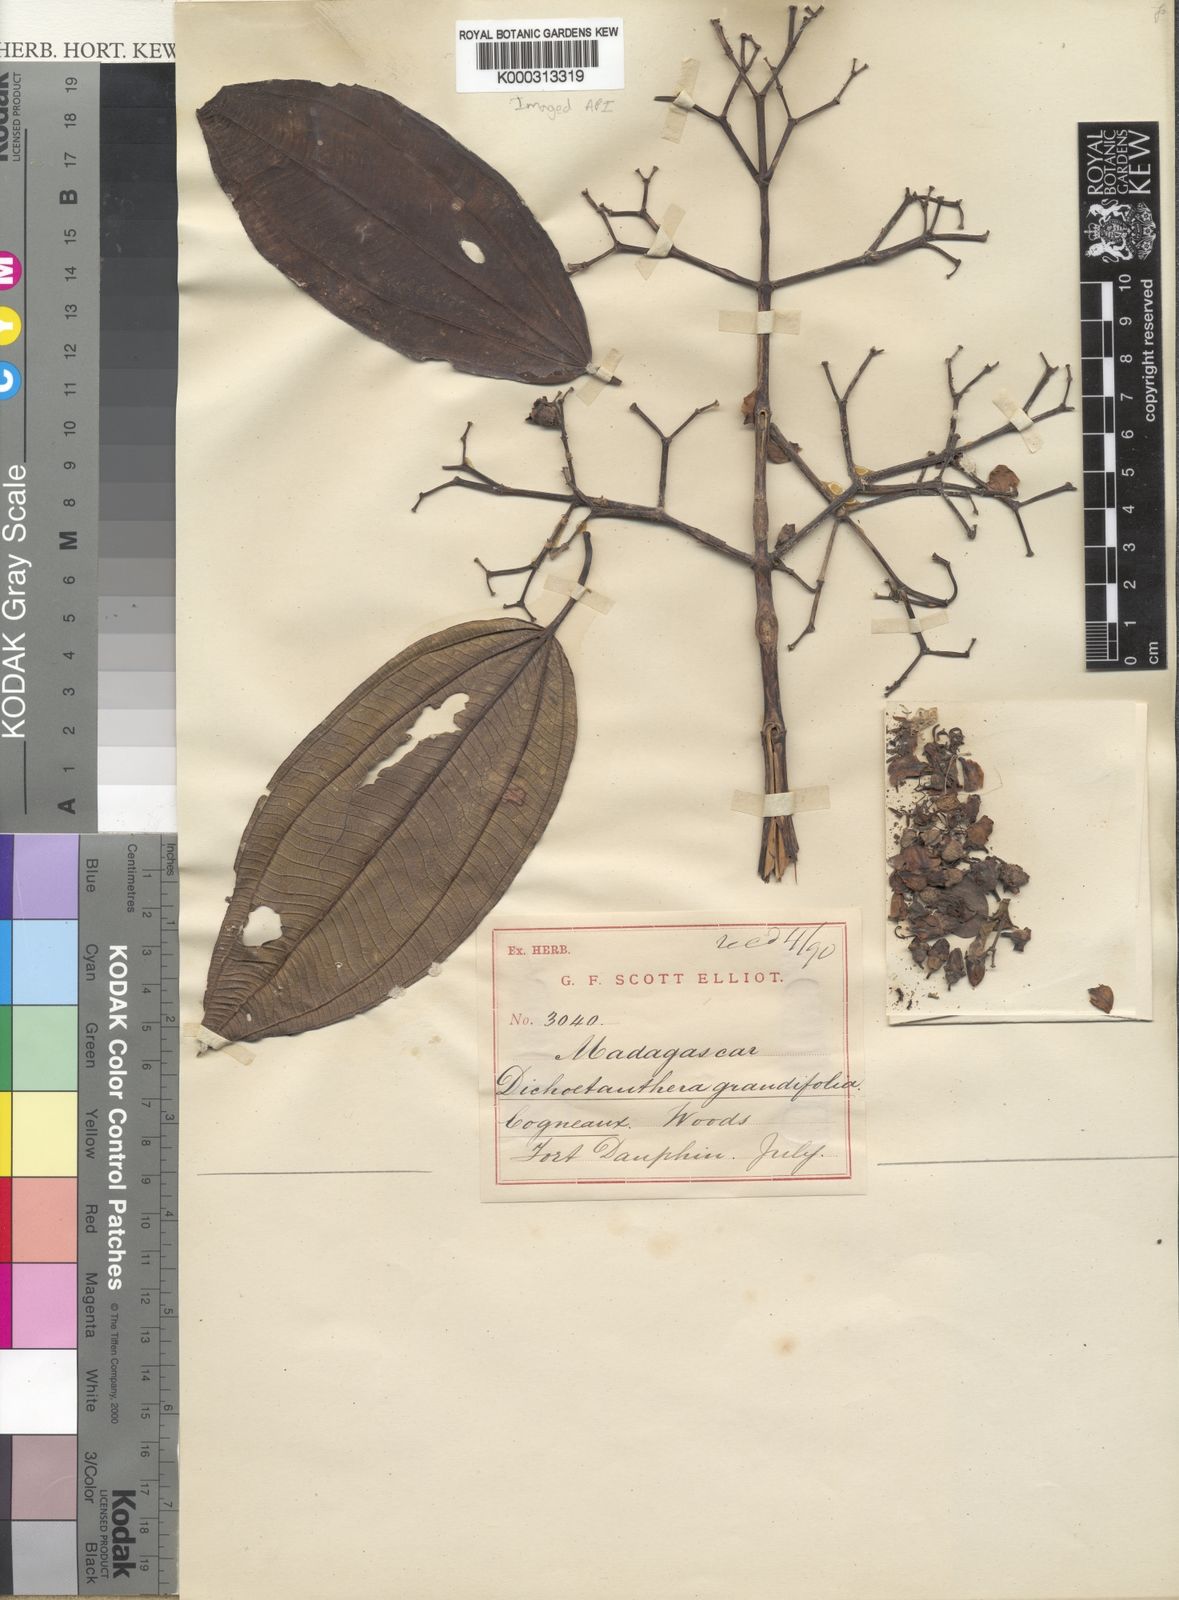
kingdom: Plantae
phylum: Tracheophyta
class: Magnoliopsida
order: Myrtales
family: Melastomataceae
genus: Dichaetanthera
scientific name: Dichaetanthera grandifolia
